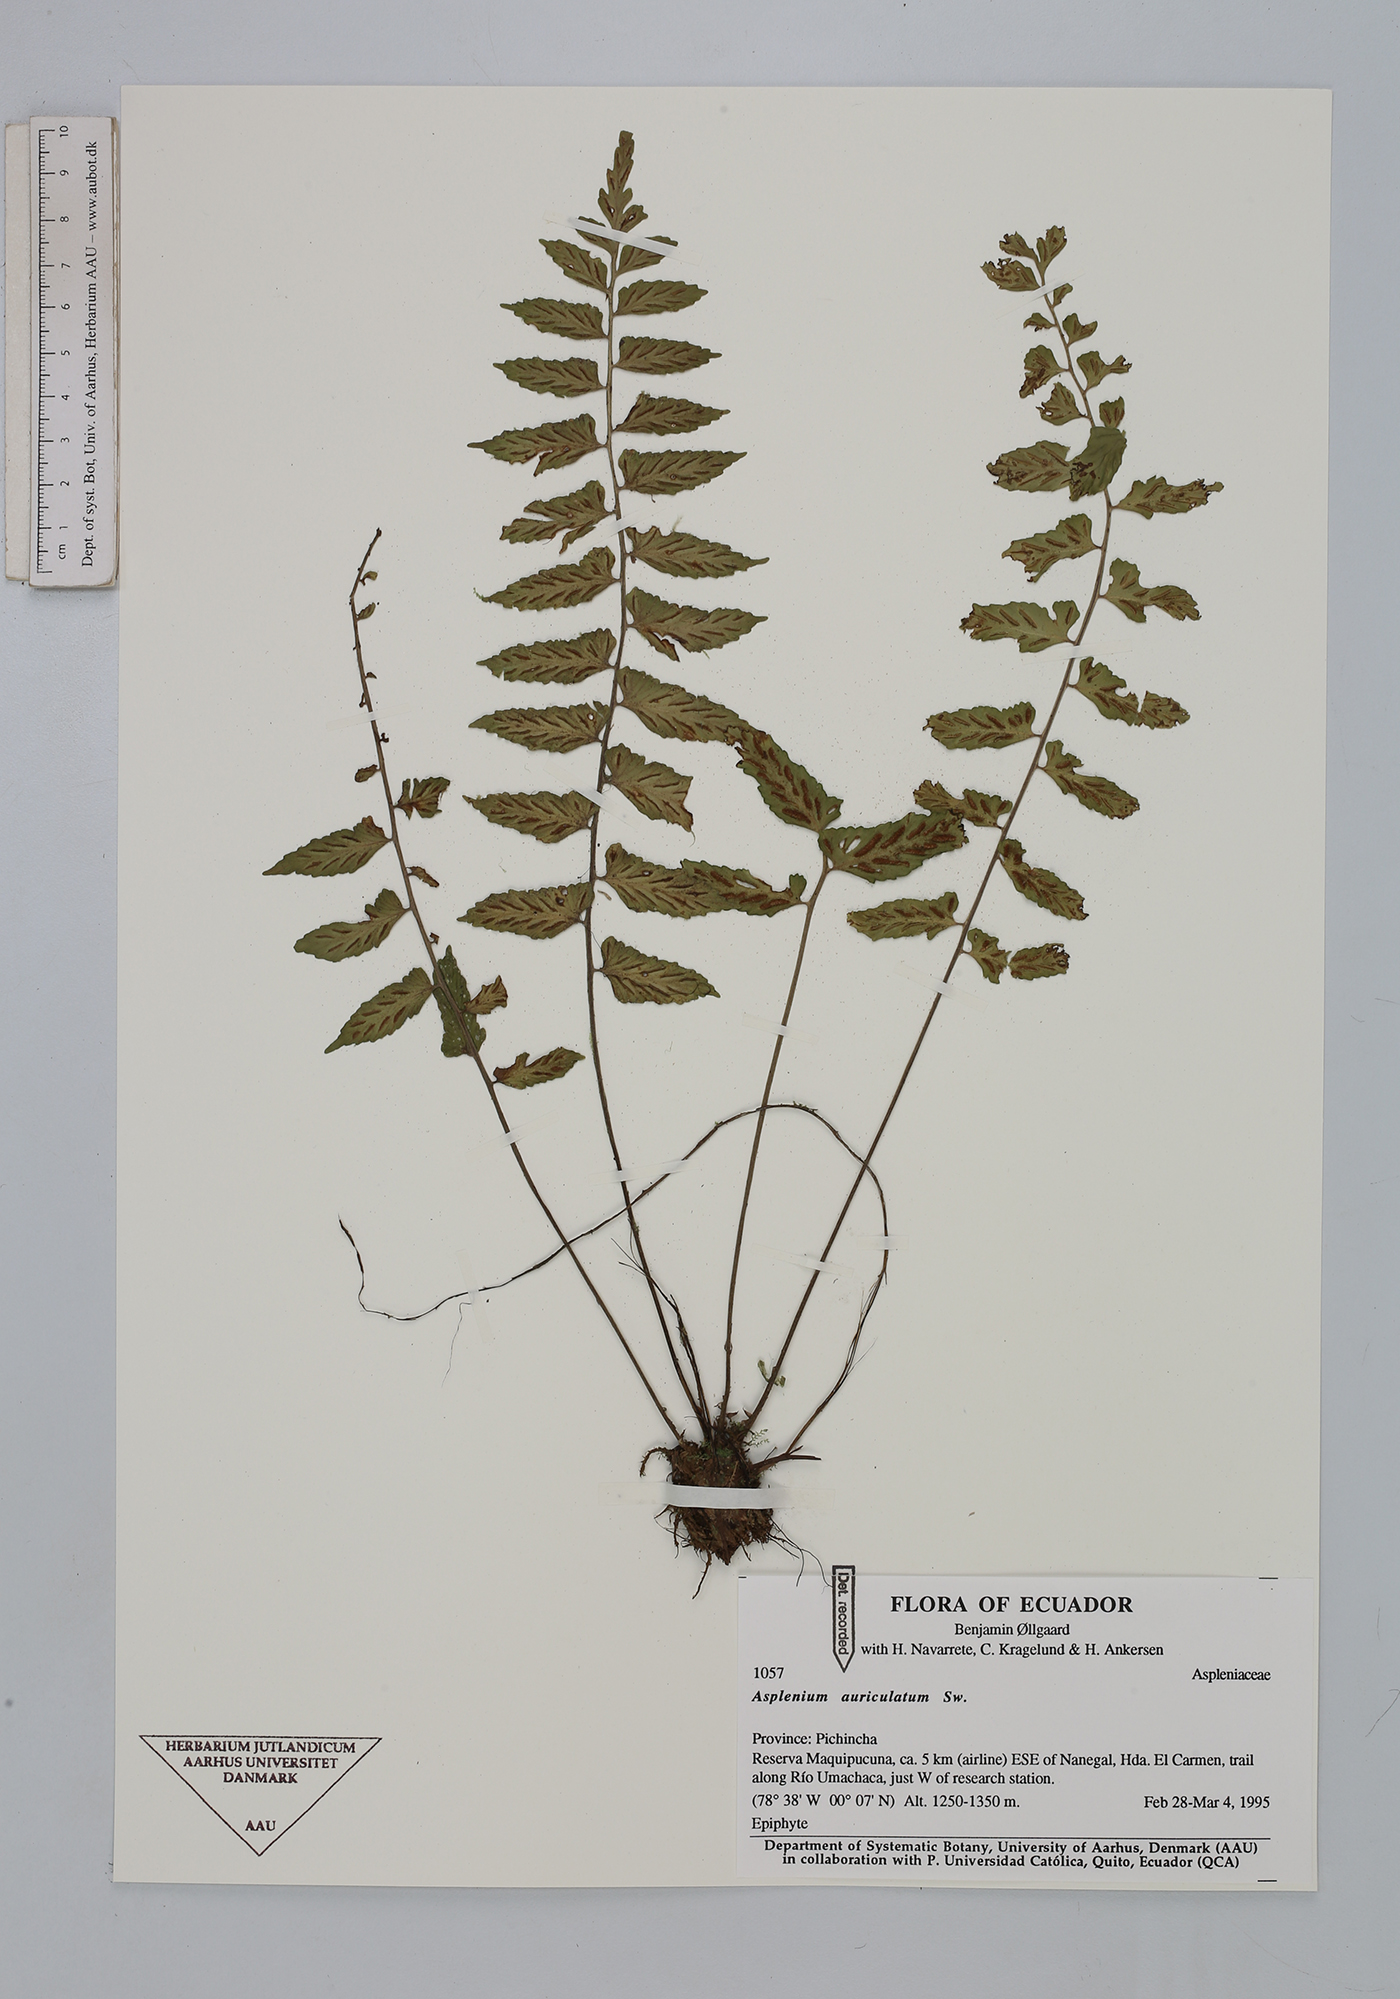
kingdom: Plantae
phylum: Tracheophyta
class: Polypodiopsida
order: Polypodiales
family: Aspleniaceae
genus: Asplenium
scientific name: Asplenium auriculatum
